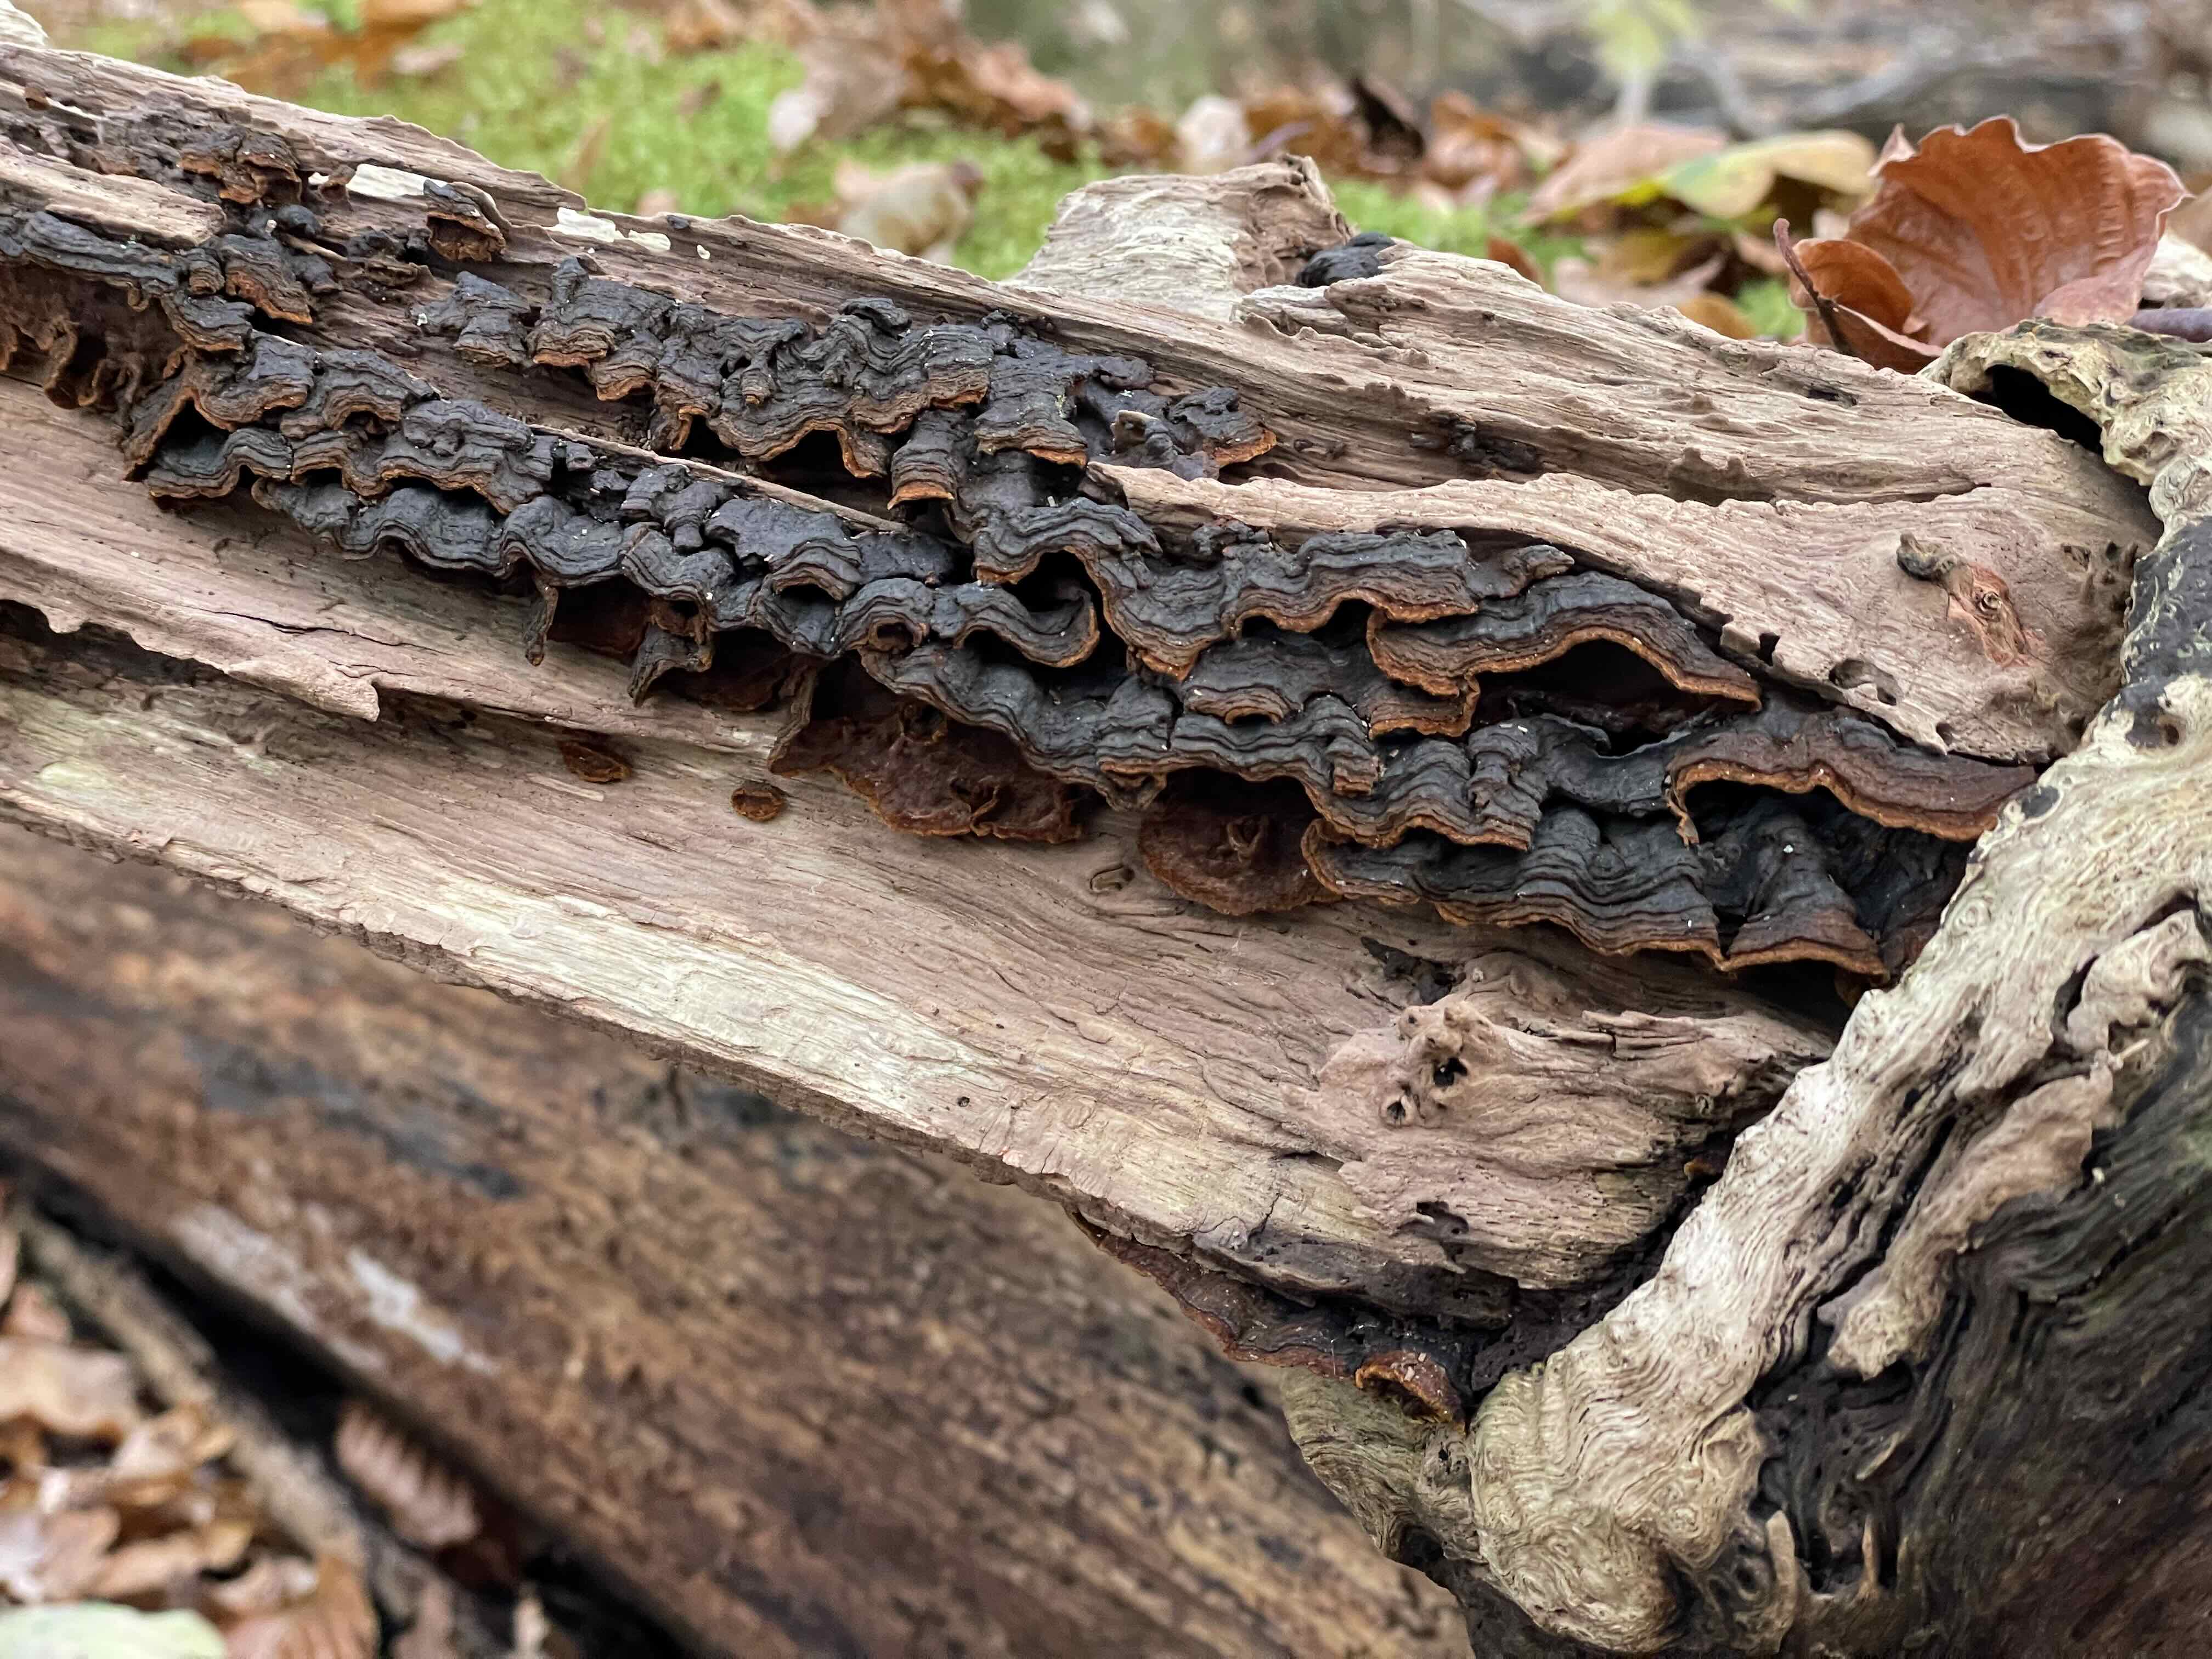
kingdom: Fungi
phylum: Basidiomycota
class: Agaricomycetes
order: Hymenochaetales
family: Hymenochaetaceae
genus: Hymenochaete
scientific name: Hymenochaete rubiginosa
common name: stiv ruslædersvamp
